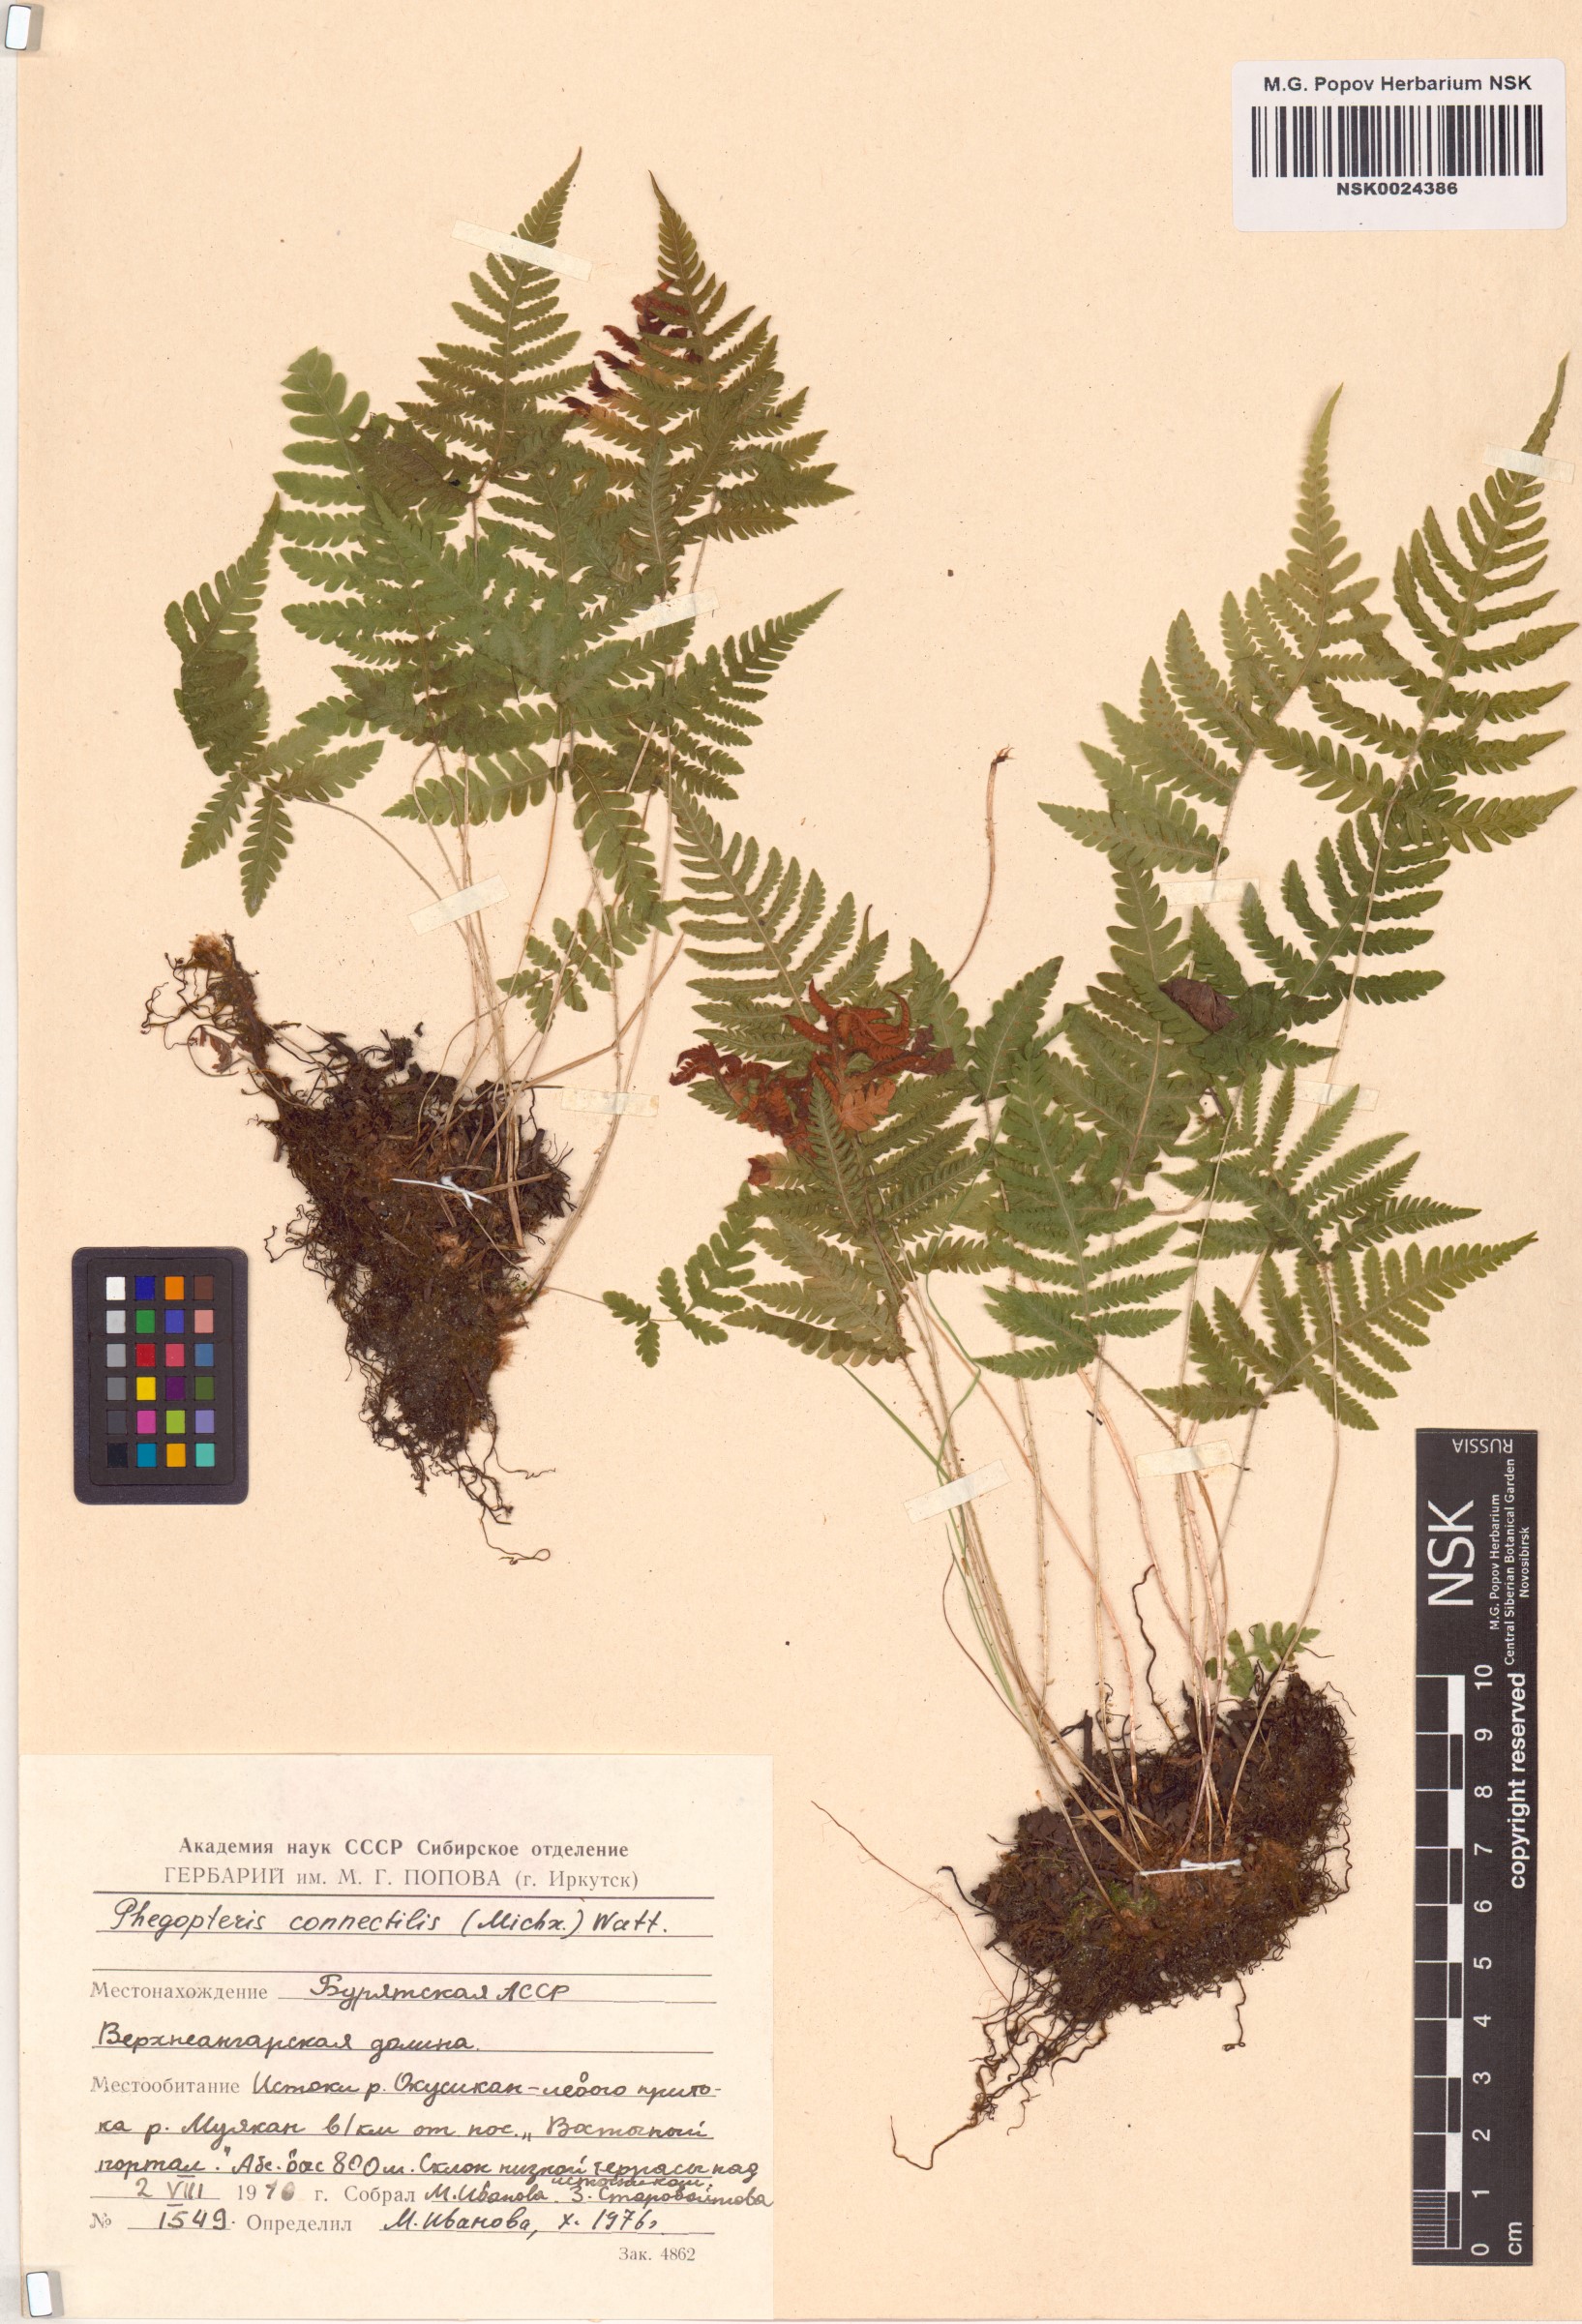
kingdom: Plantae
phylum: Tracheophyta
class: Polypodiopsida
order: Polypodiales
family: Thelypteridaceae
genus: Phegopteris
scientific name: Phegopteris connectilis
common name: Beech fern
